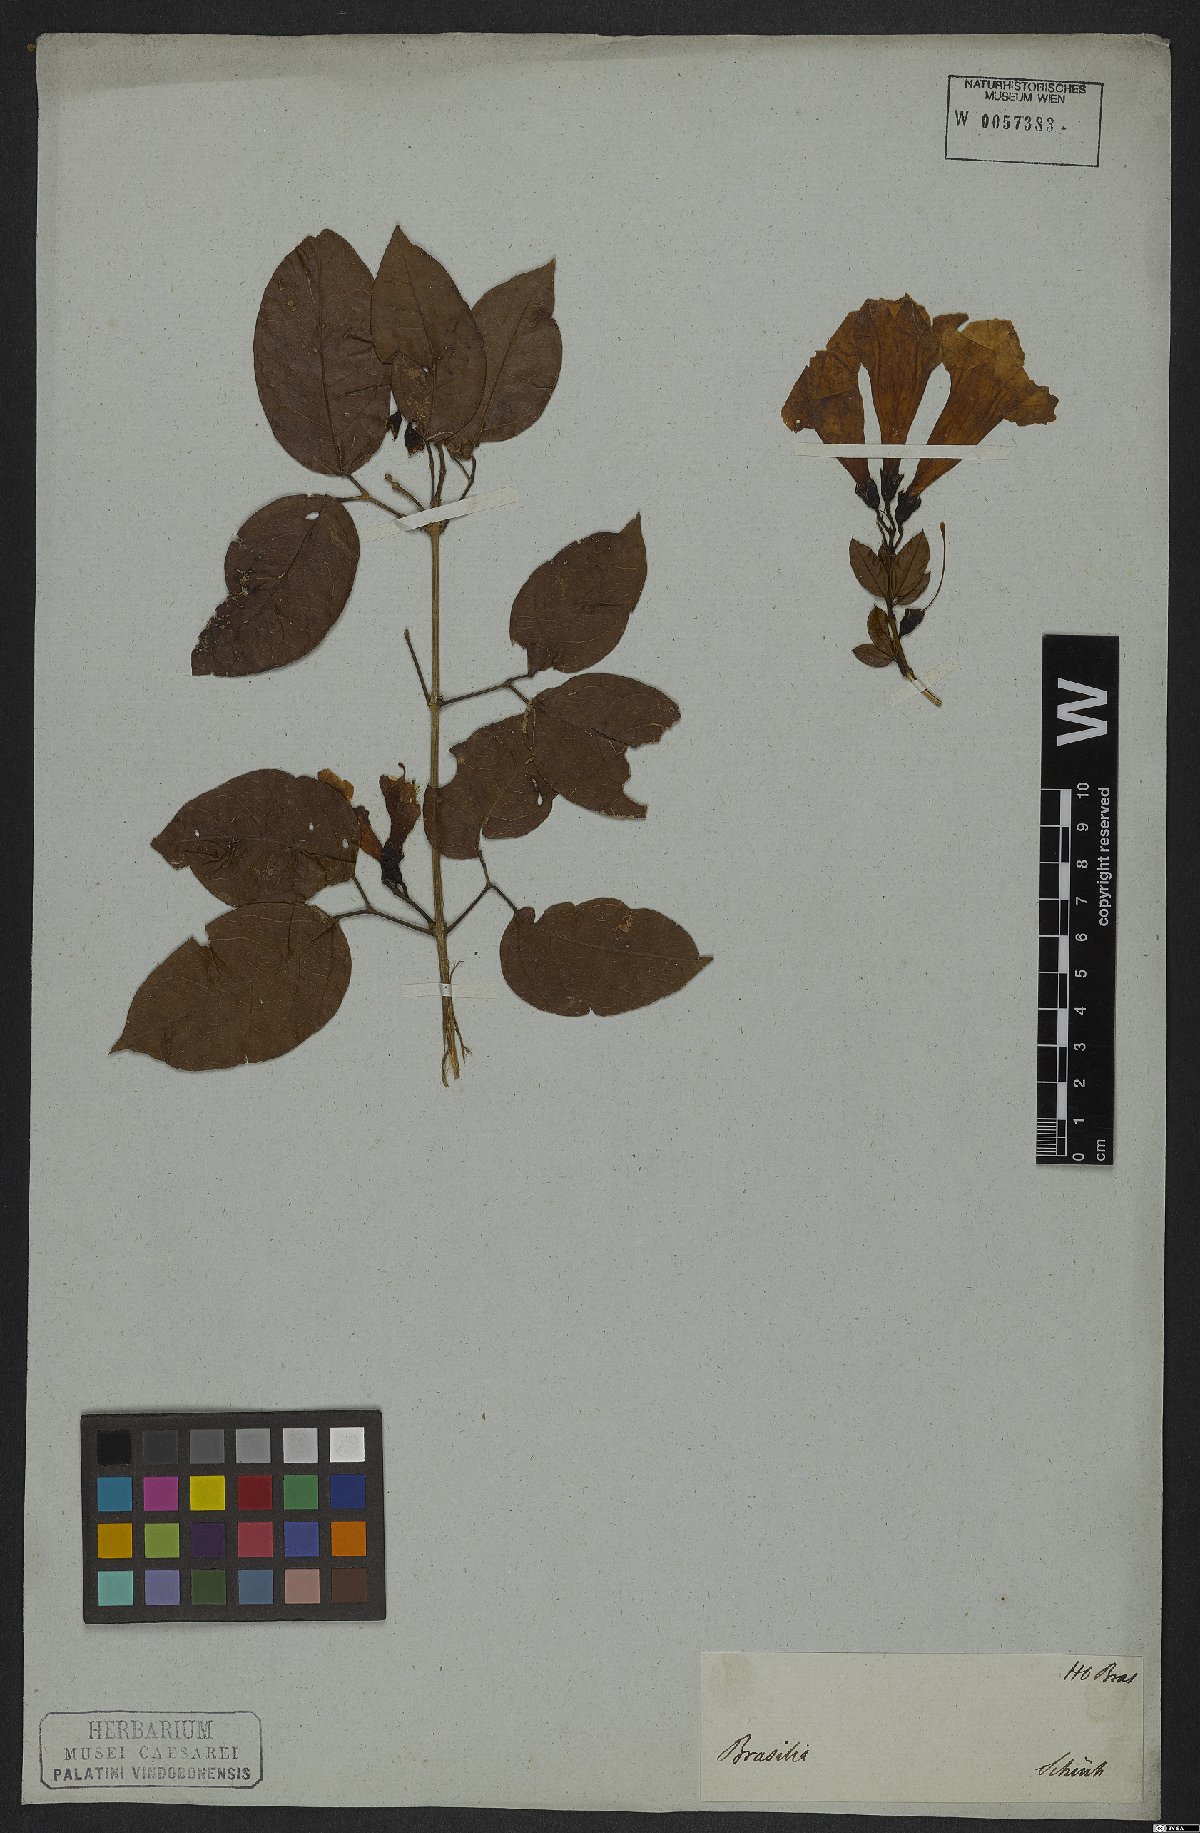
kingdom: Plantae
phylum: Tracheophyta
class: Magnoliopsida
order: Lamiales
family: Bignoniaceae
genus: Mansoa
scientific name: Mansoa difficilis
